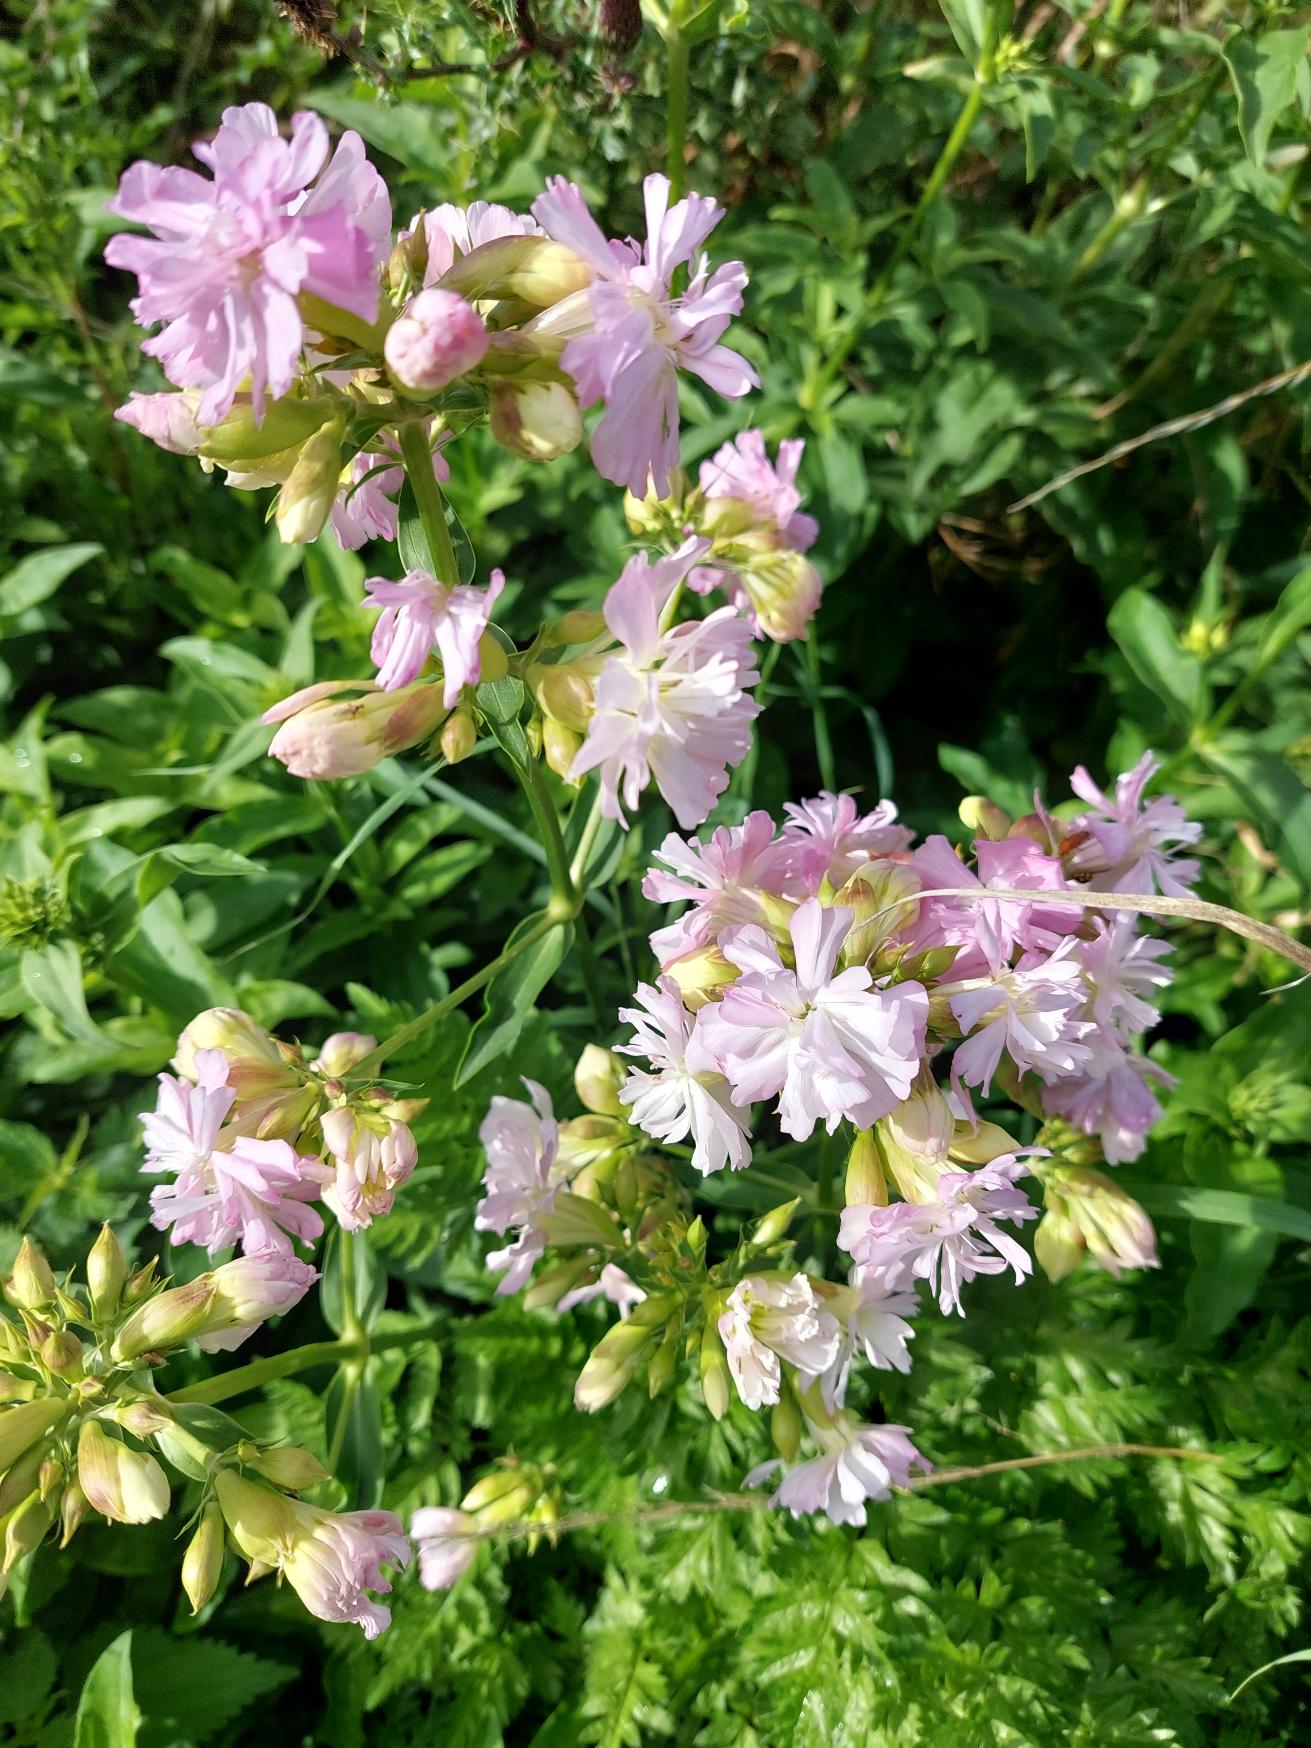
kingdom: Plantae
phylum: Tracheophyta
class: Magnoliopsida
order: Caryophyllales
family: Caryophyllaceae
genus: Saponaria
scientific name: Saponaria officinalis
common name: Sæbeurt
